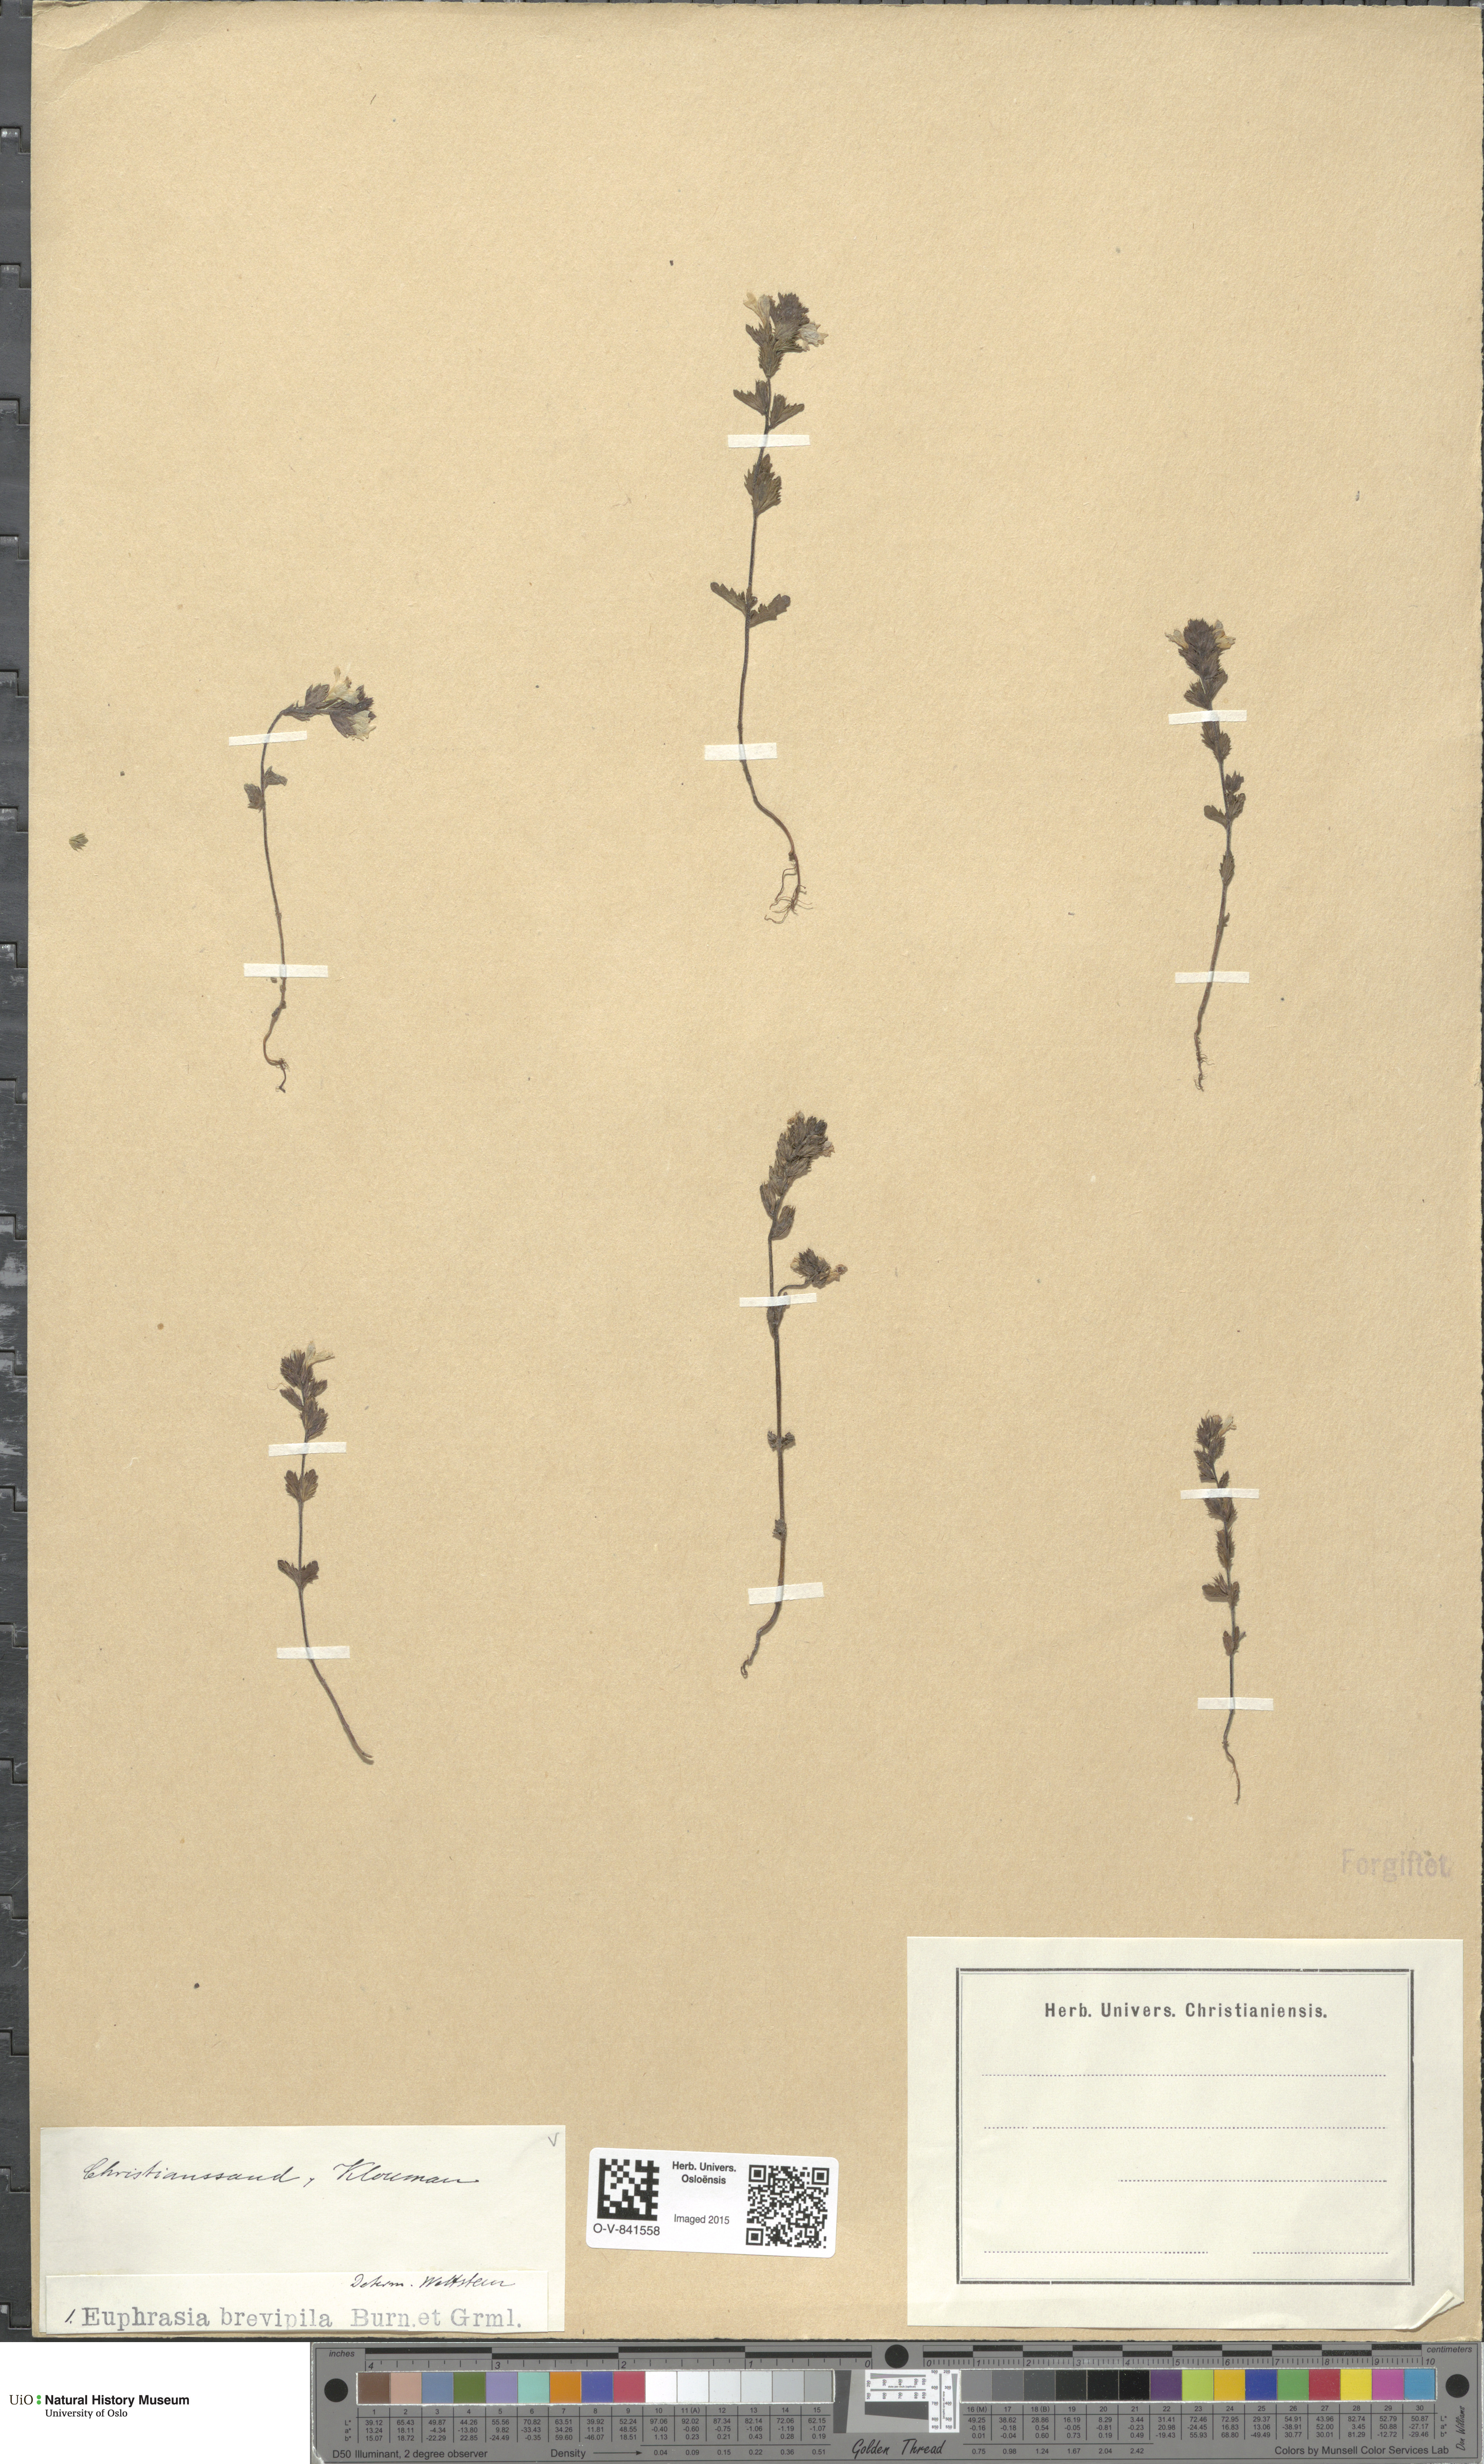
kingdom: Plantae
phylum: Tracheophyta
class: Magnoliopsida
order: Lamiales
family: Orobanchaceae
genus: Euphrasia
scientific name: Euphrasia vernalis
